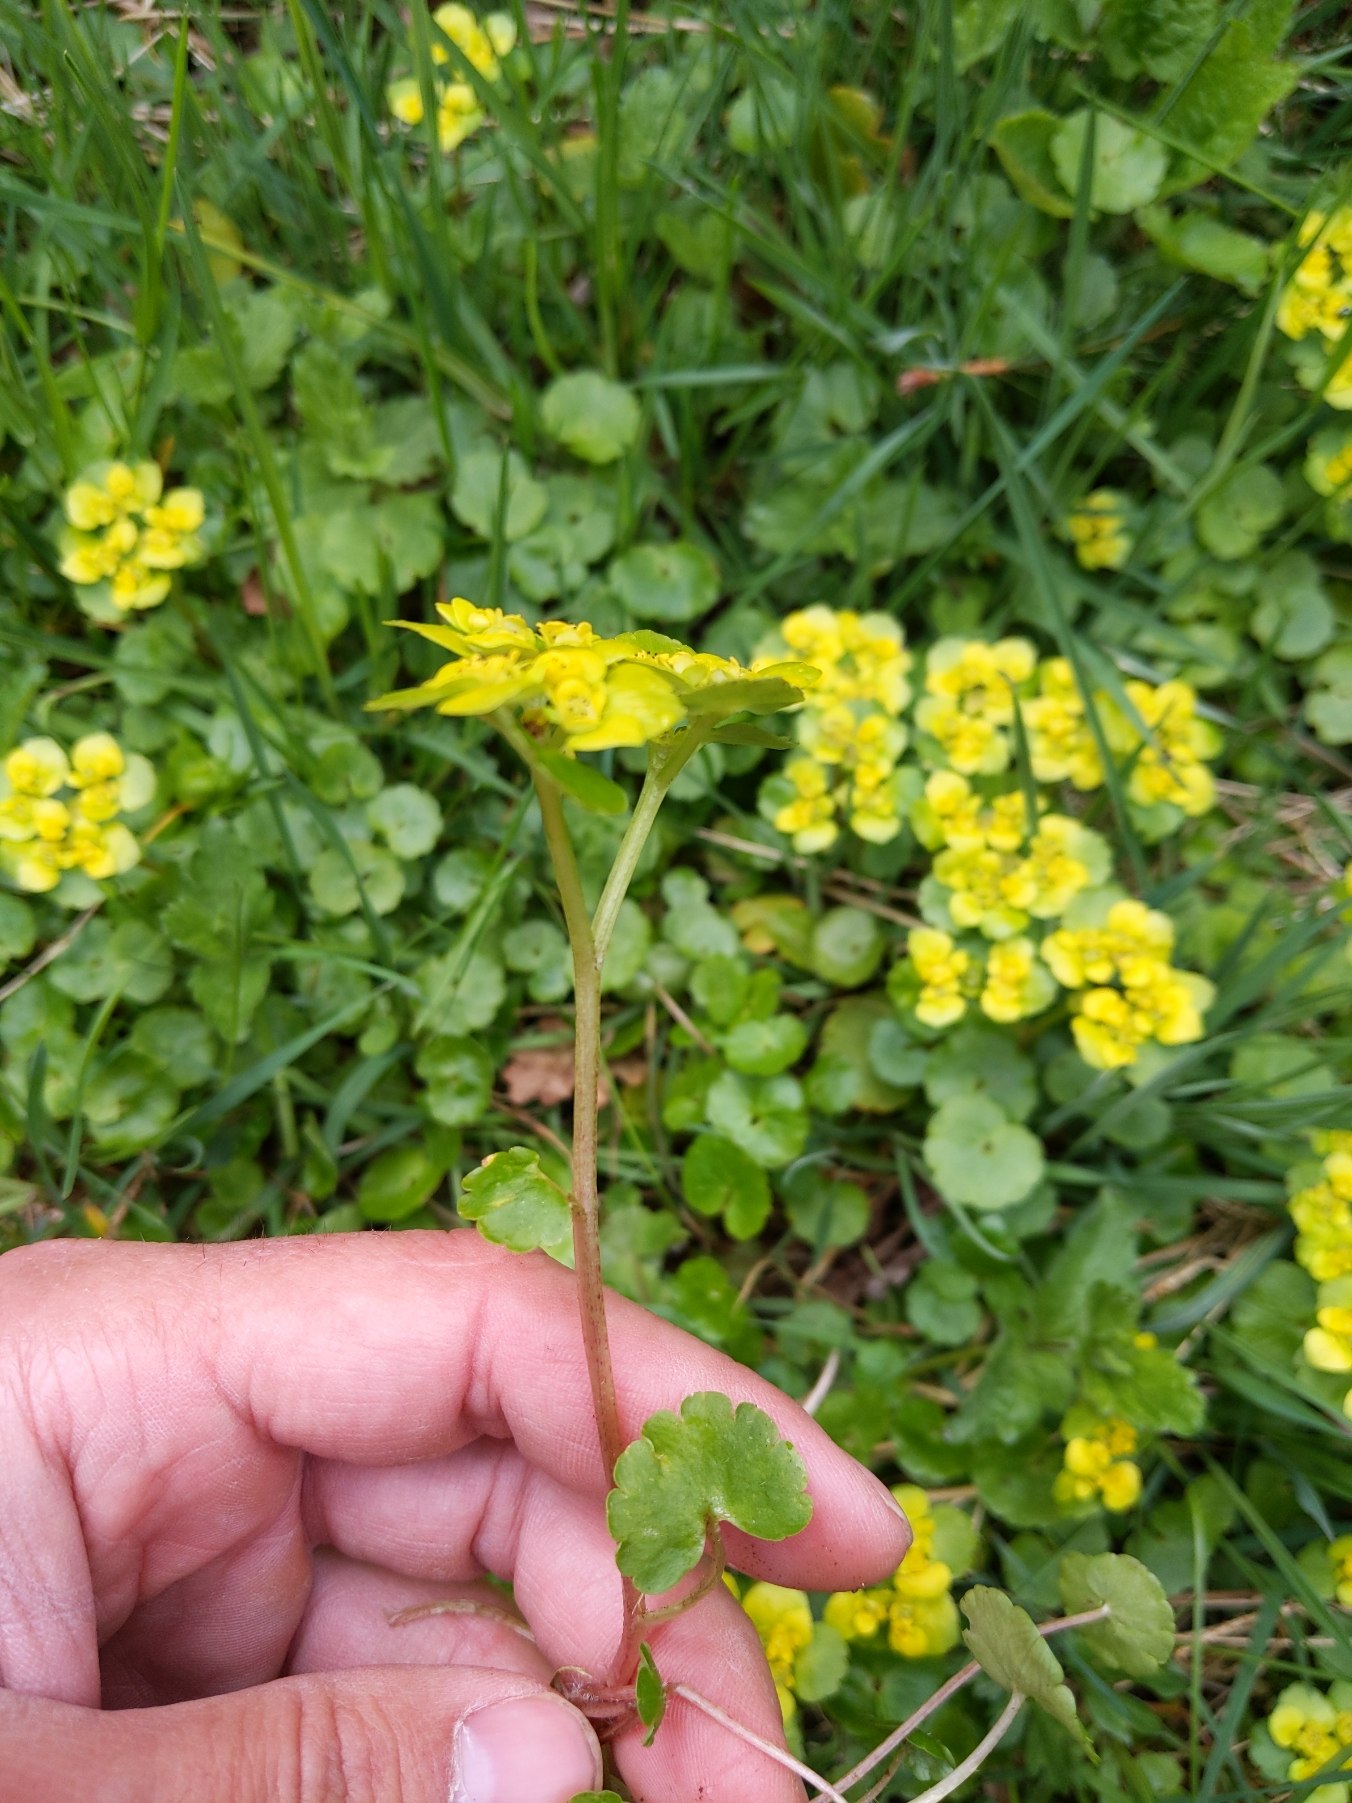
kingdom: Plantae
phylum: Tracheophyta
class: Magnoliopsida
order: Saxifragales
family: Saxifragaceae
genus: Chrysosplenium
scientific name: Chrysosplenium alternifolium
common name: Almindelig milturt
